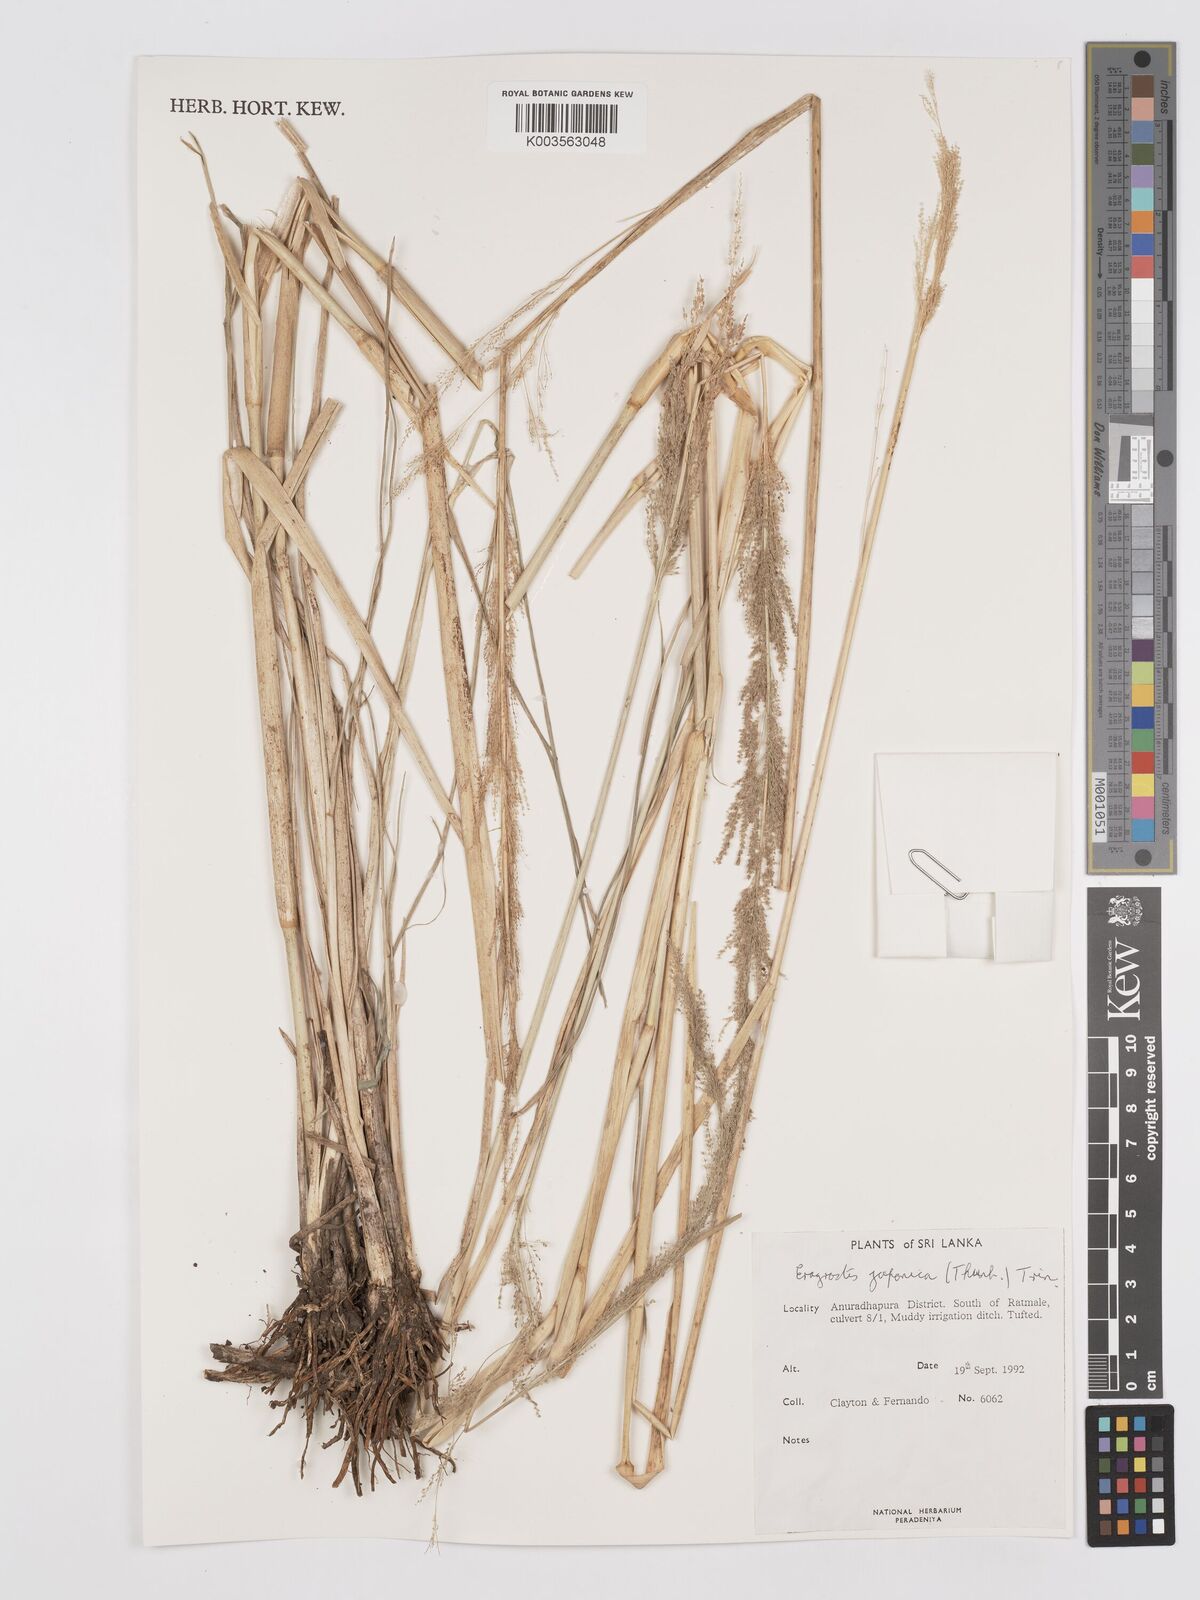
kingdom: Plantae
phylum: Tracheophyta
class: Liliopsida
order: Poales
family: Poaceae
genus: Eragrostis
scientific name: Eragrostis japonica
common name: Pond lovegrass
